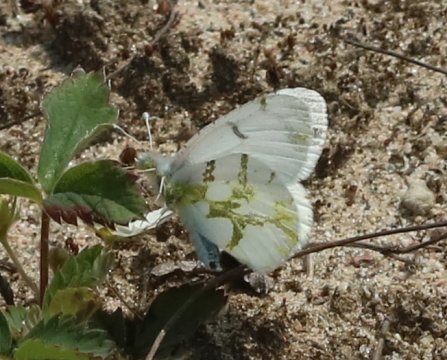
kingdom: Animalia
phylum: Arthropoda
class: Insecta
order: Lepidoptera
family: Pieridae
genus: Euchloe
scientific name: Euchloe olympia
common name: Olympia Marble
